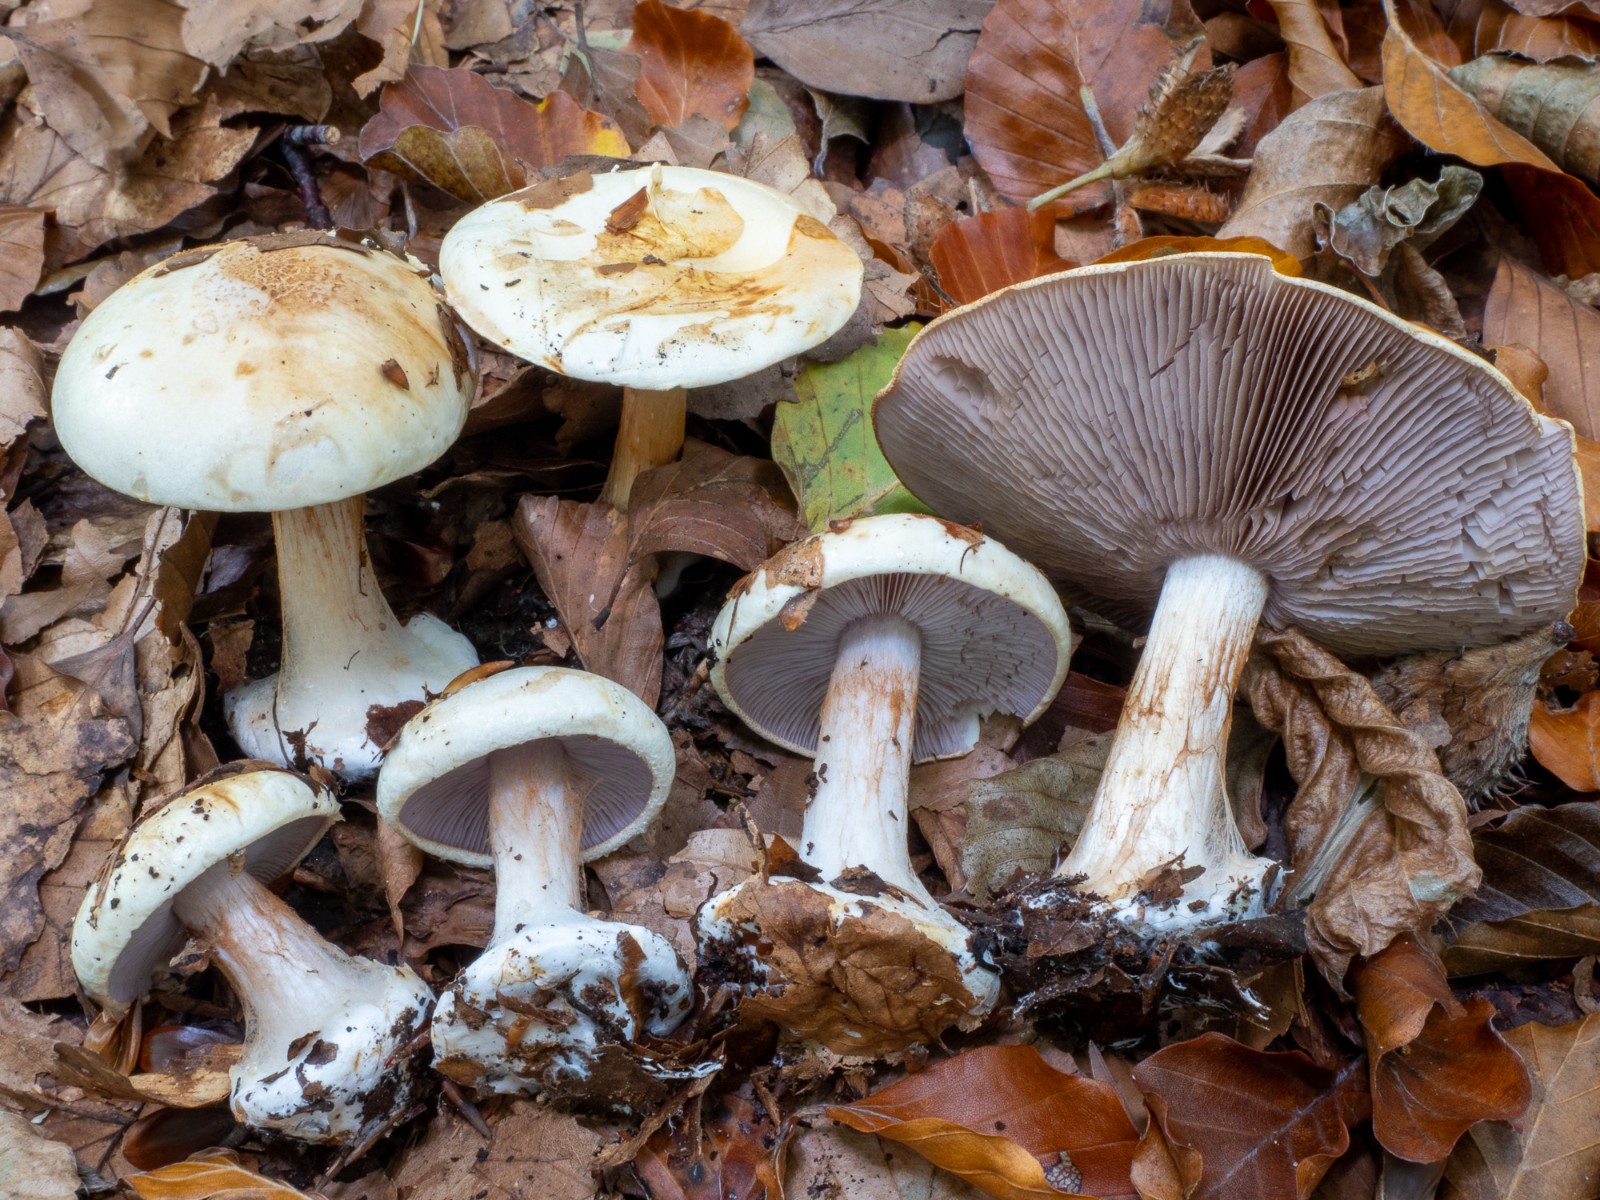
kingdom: Fungi
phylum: Basidiomycota
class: Agaricomycetes
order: Agaricales
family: Cortinariaceae
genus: Calonarius
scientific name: Calonarius catharinae
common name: Katrines slørhat
